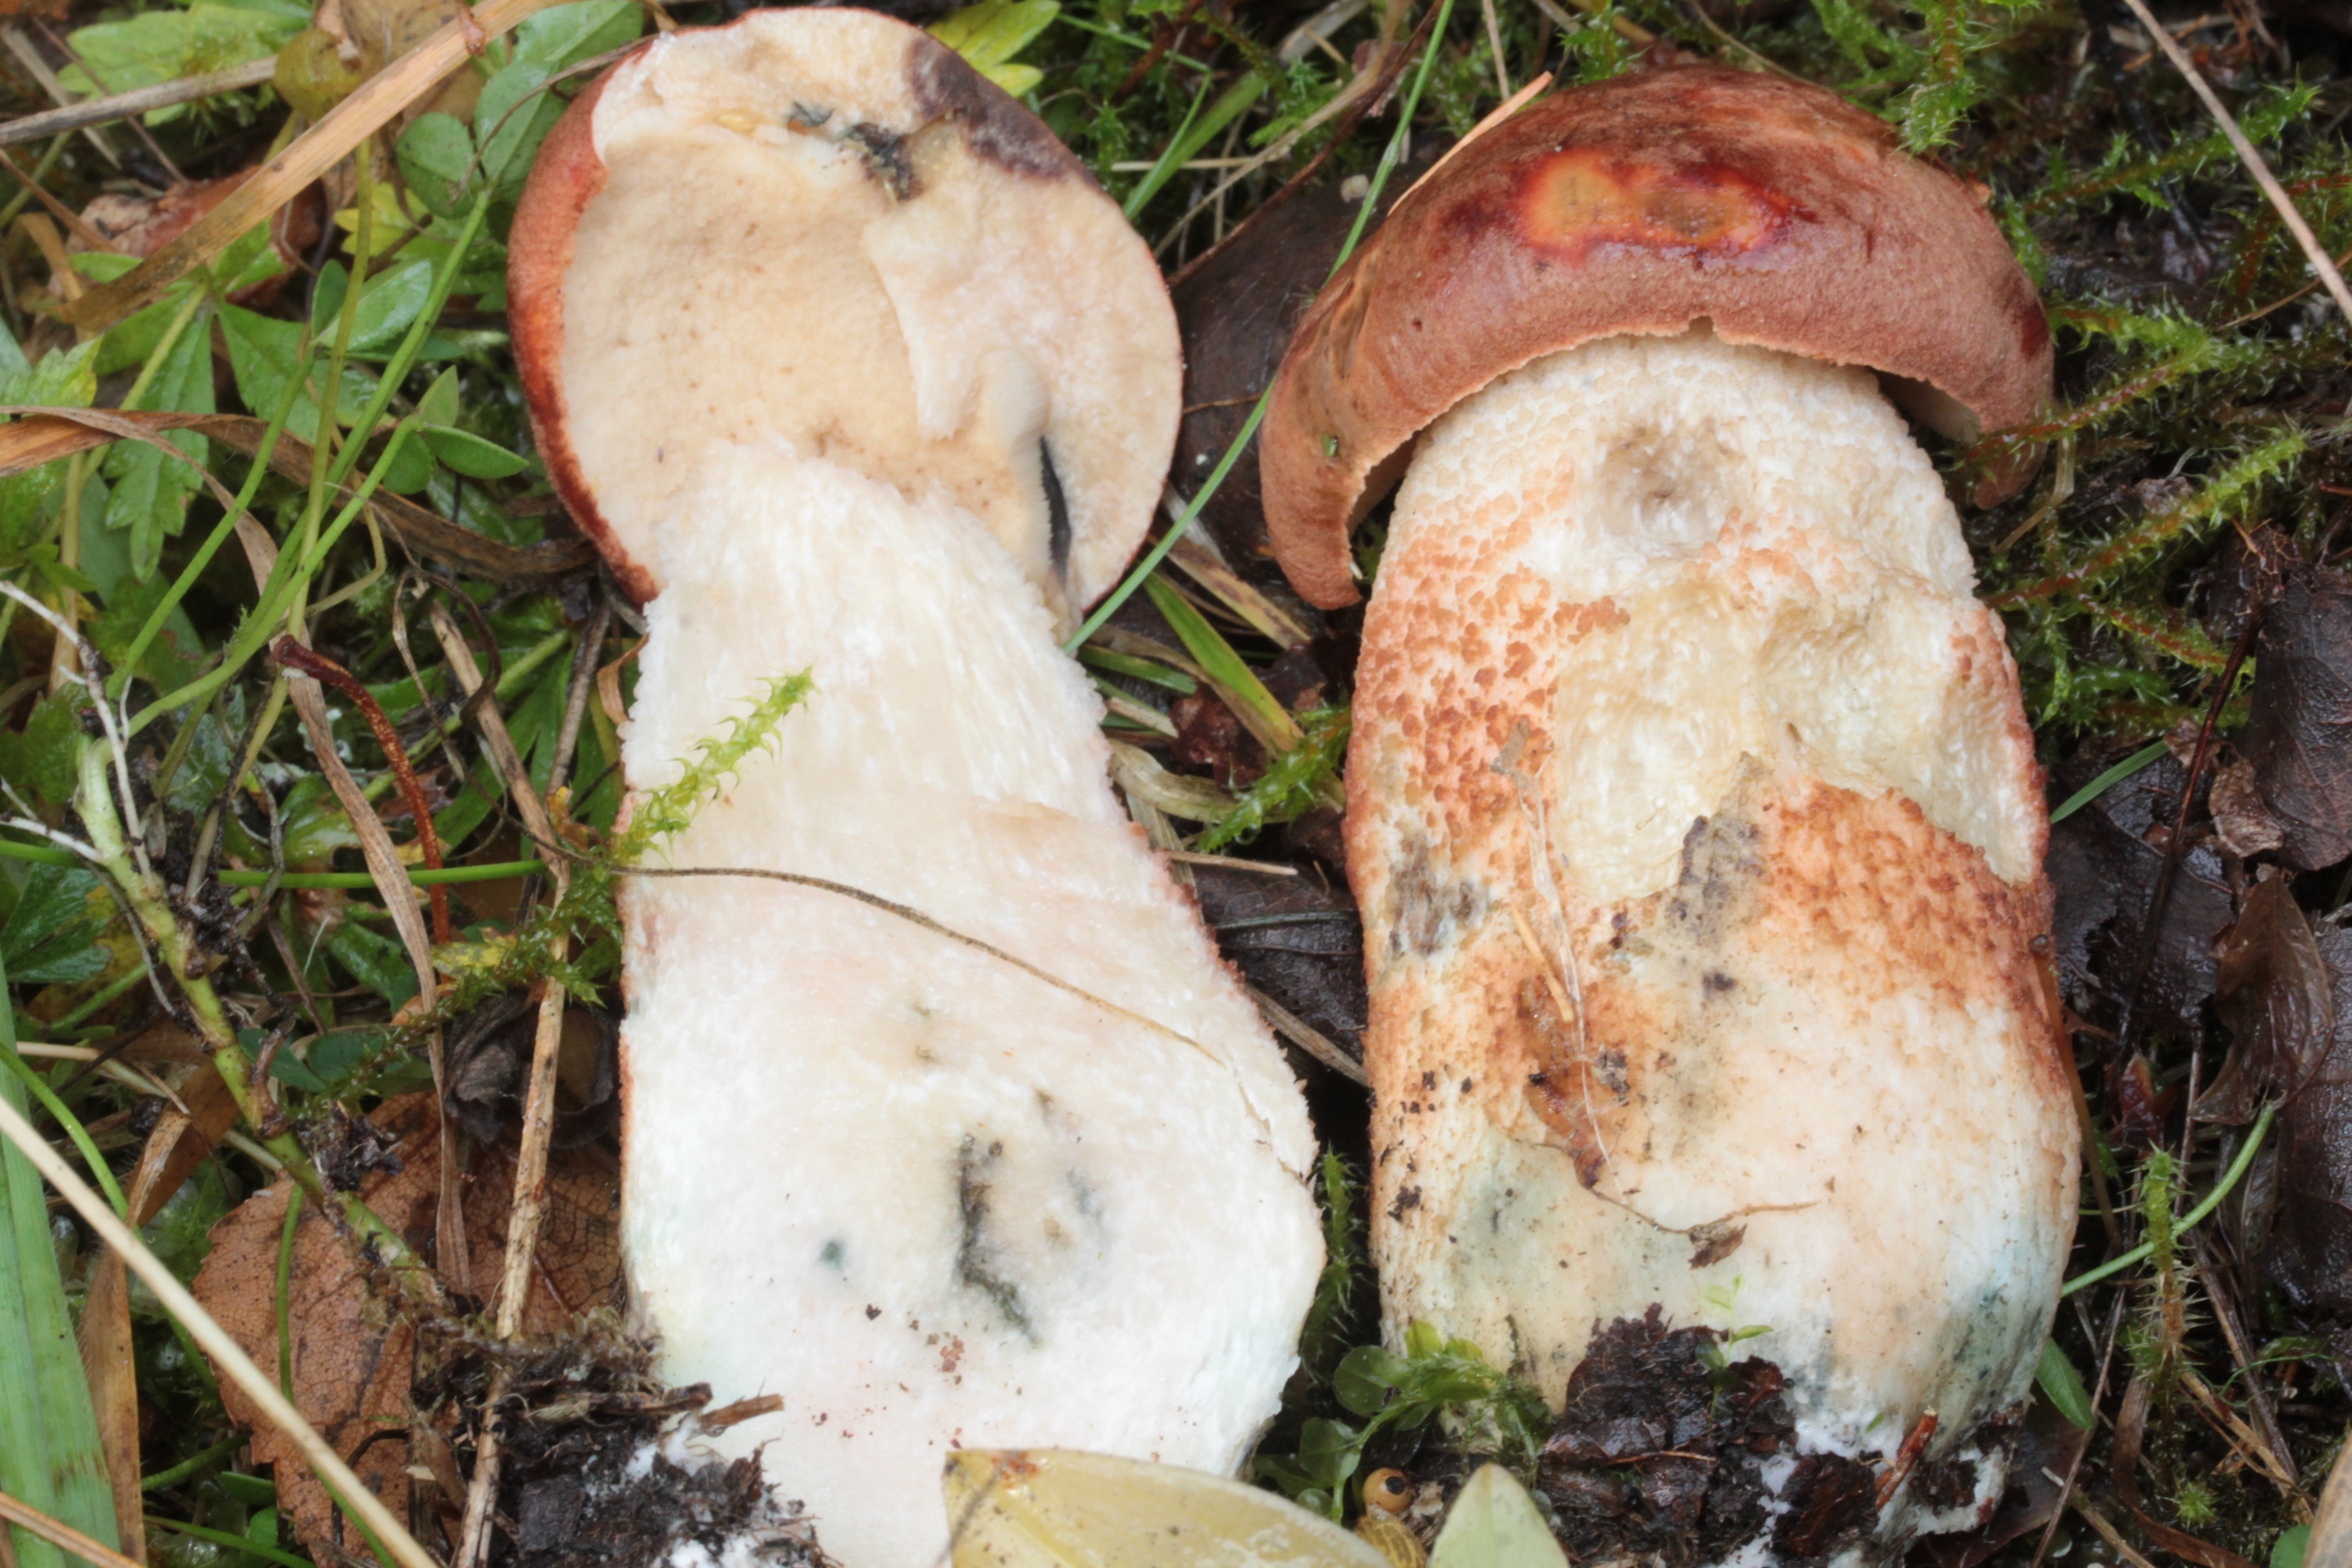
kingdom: Fungi
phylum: Basidiomycota
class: Agaricomycetes
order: Boletales
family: Boletaceae
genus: Leccinum
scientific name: Leccinum aurantiacum
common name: Orange bolete
